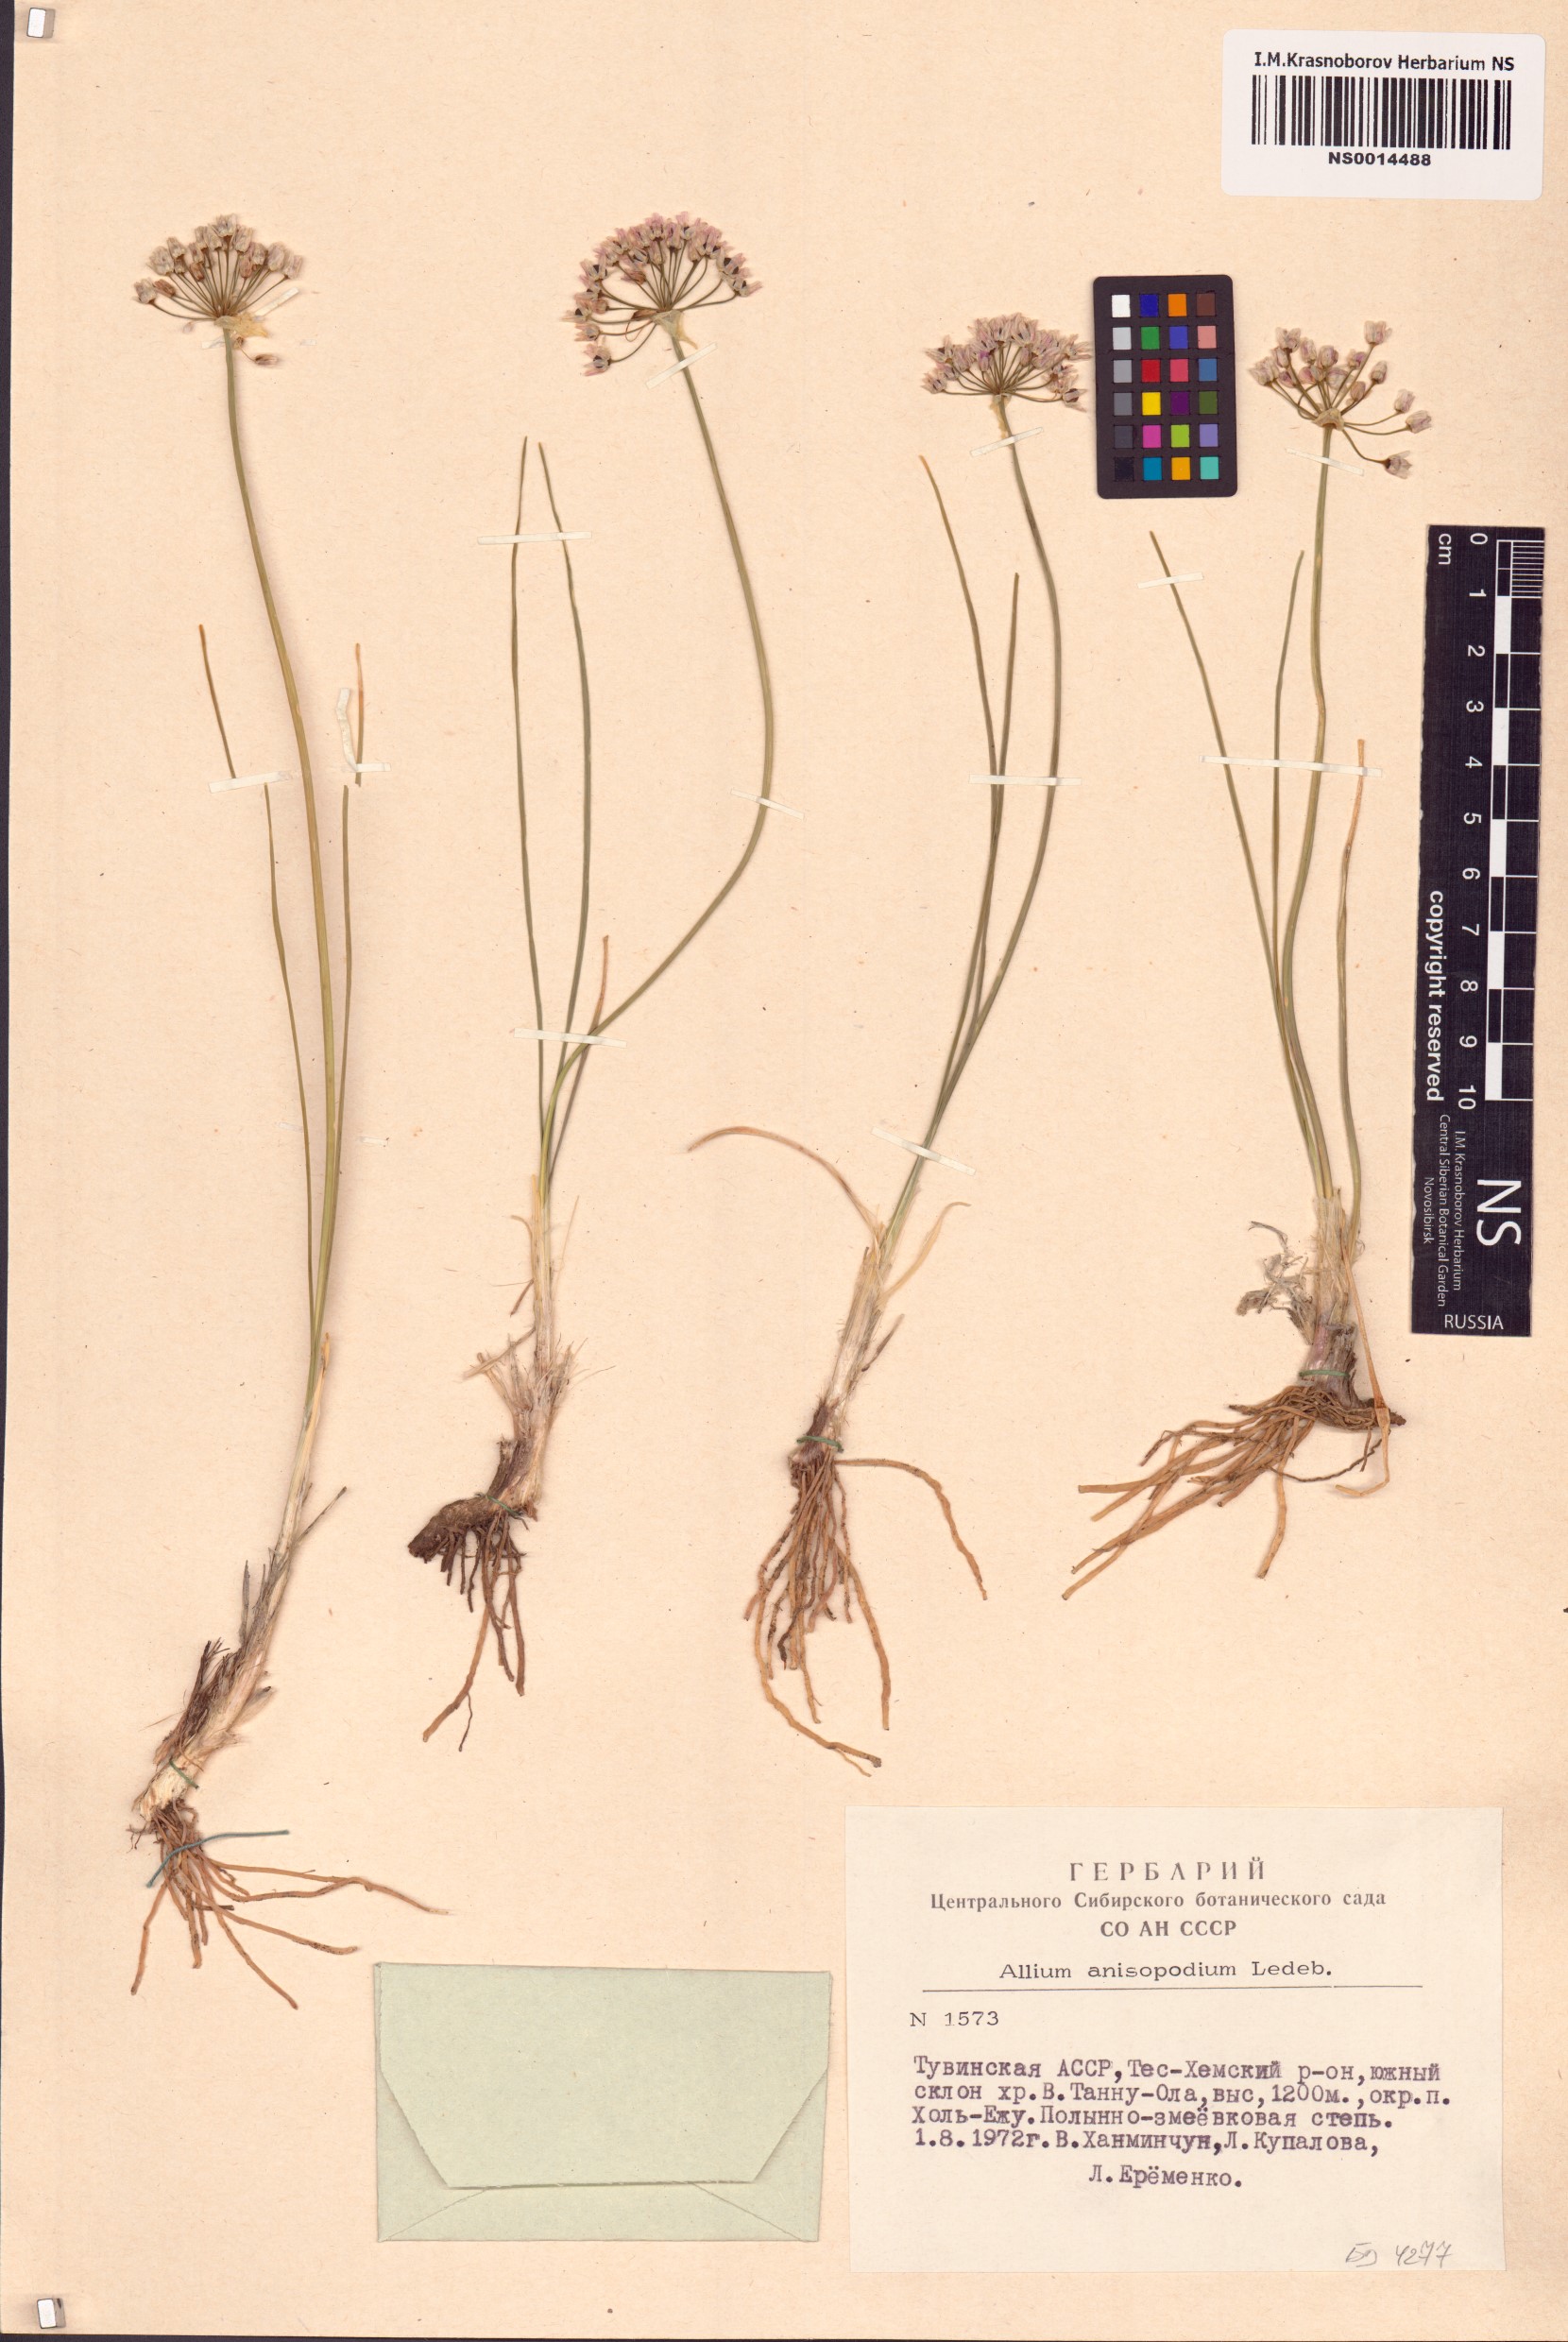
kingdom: Plantae
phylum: Tracheophyta
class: Liliopsida
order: Asparagales
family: Amaryllidaceae
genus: Allium
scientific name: Allium anisopodium
